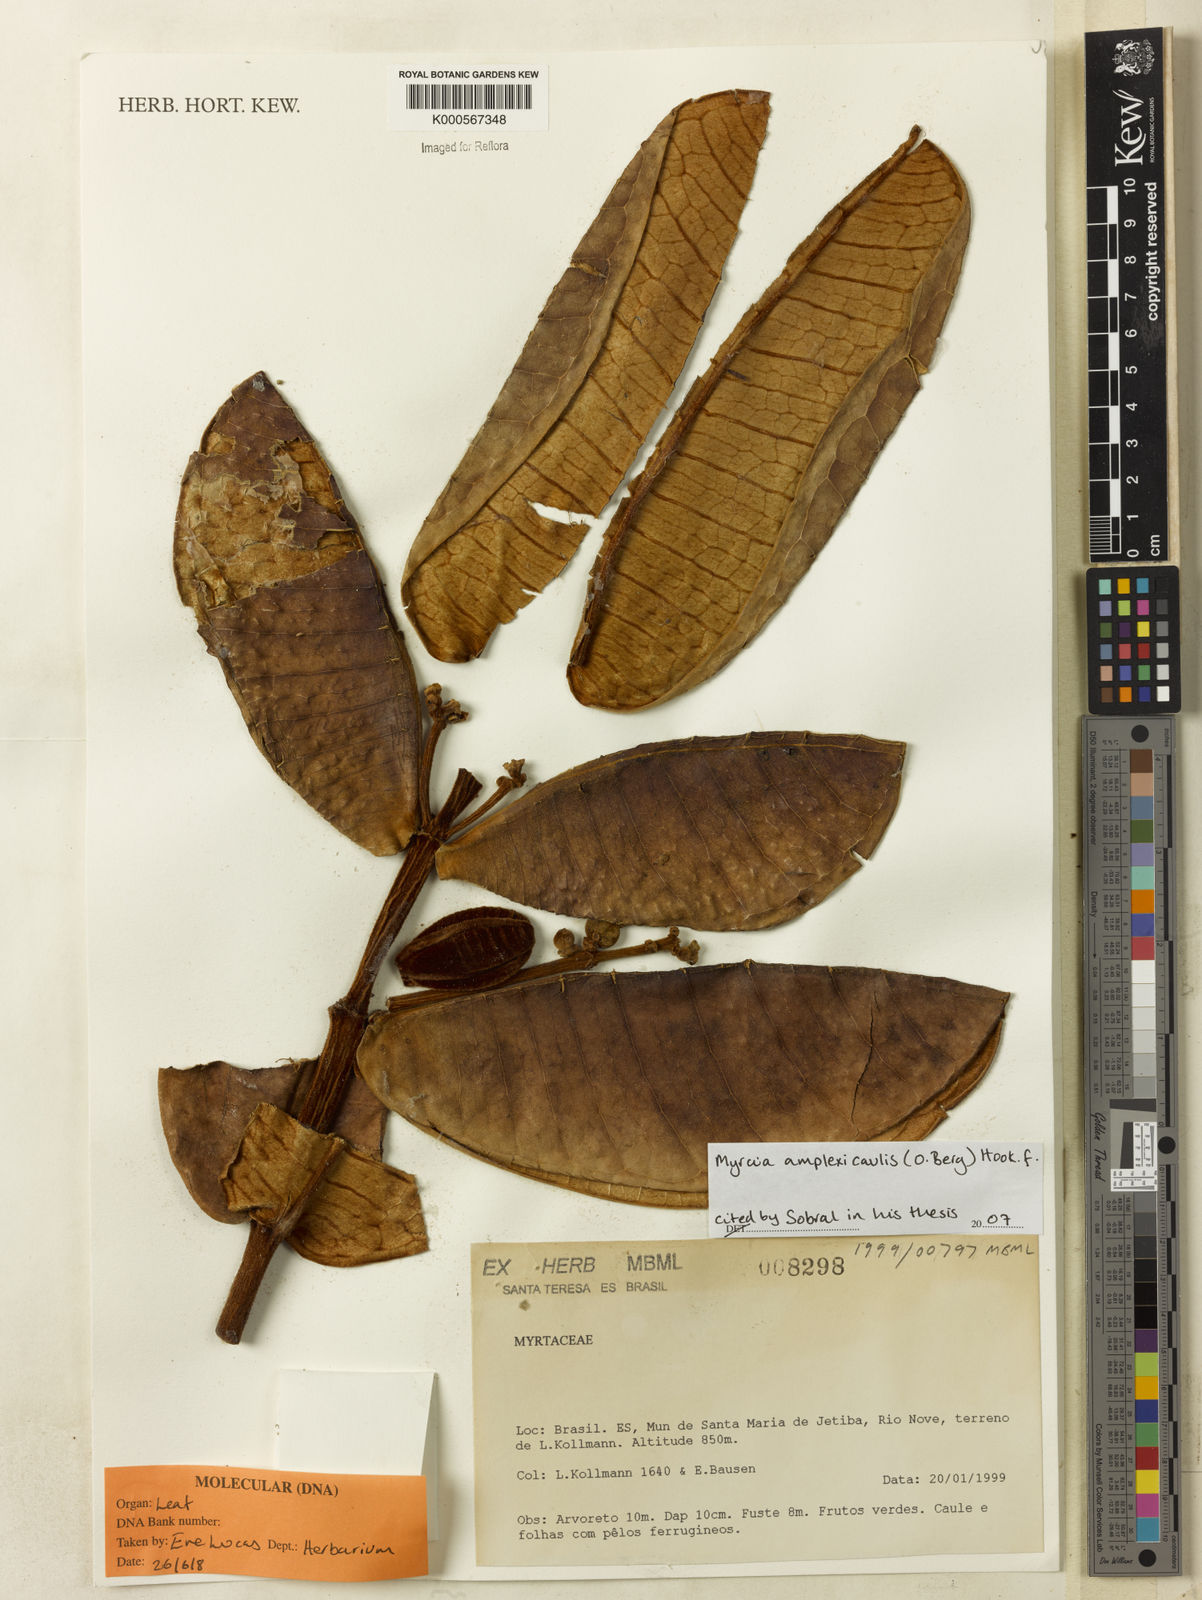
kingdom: Plantae
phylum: Tracheophyta
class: Magnoliopsida
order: Myrtales
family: Myrtaceae
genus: Myrcia
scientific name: Myrcia amplexicaulis
